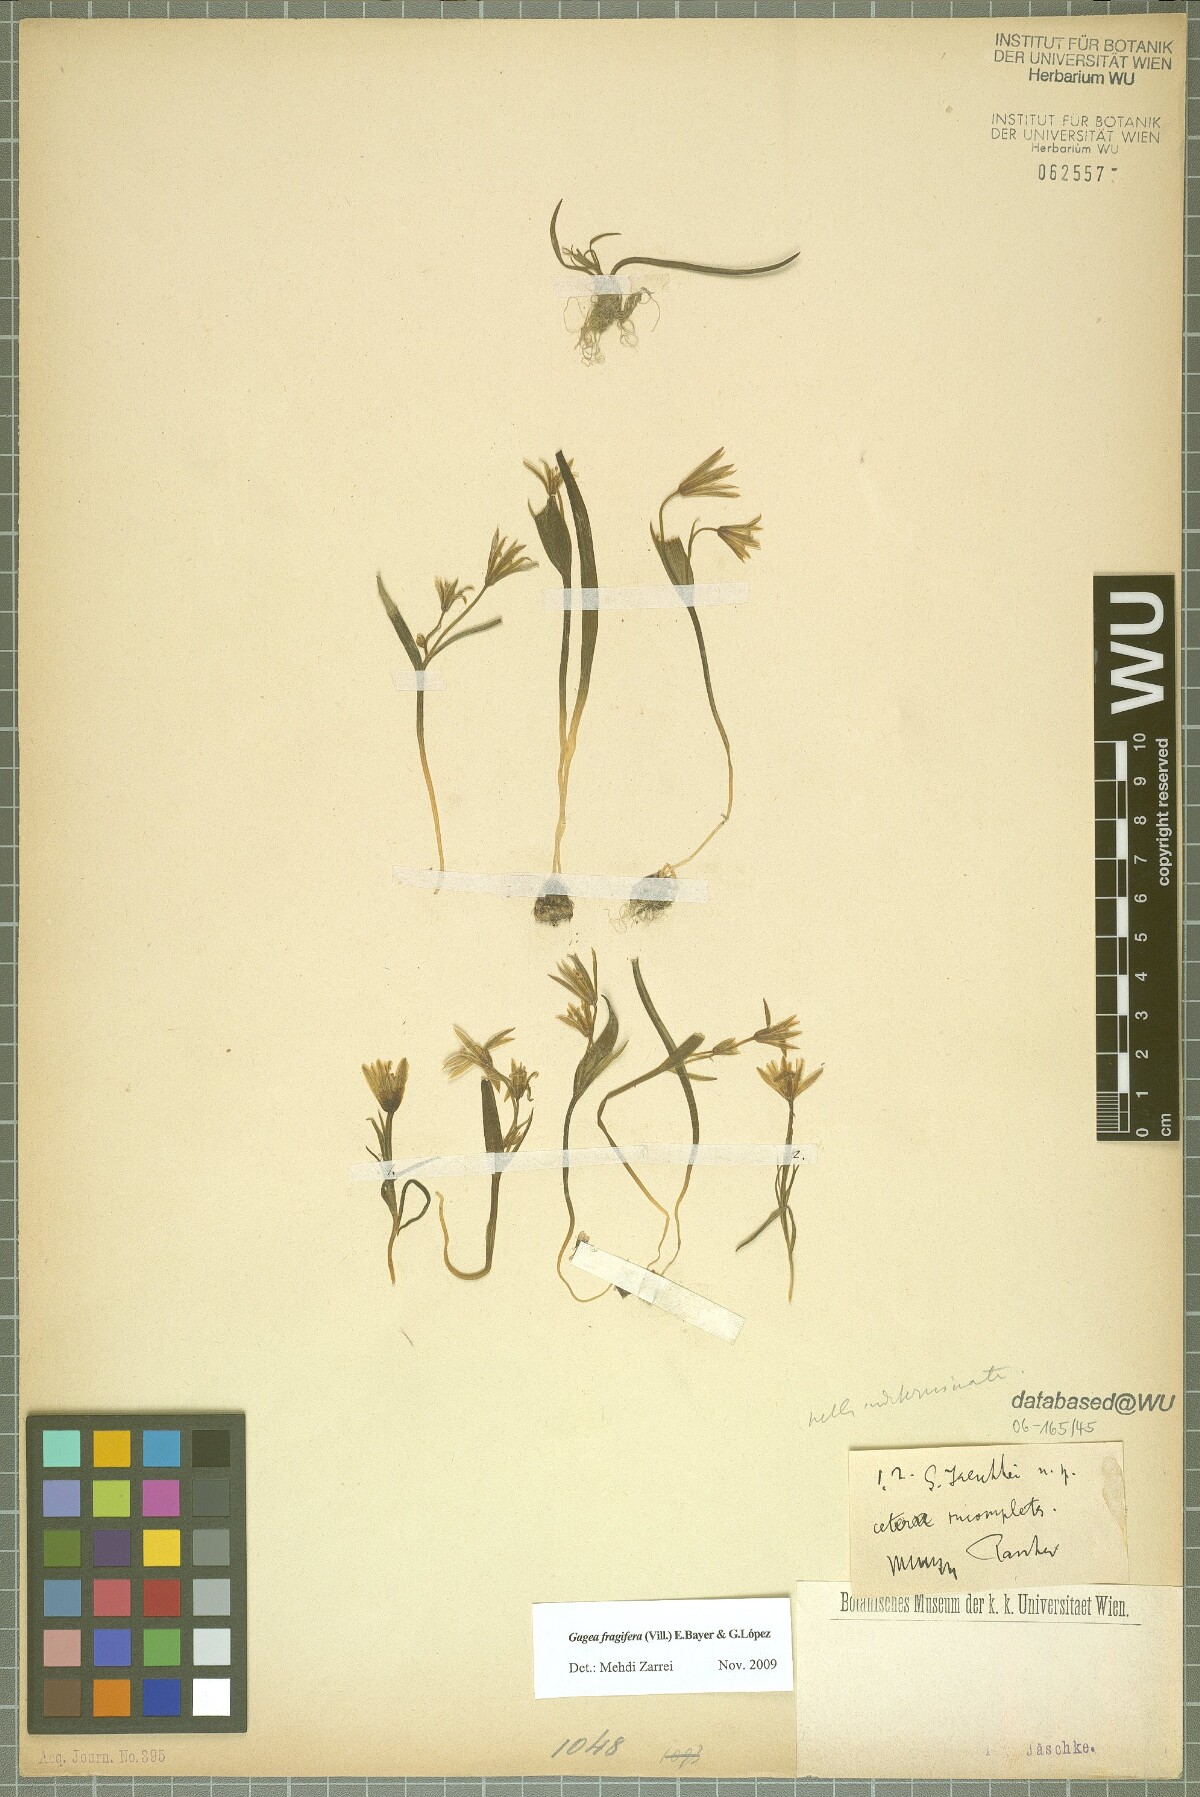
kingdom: Plantae
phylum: Tracheophyta
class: Liliopsida
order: Liliales
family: Liliaceae
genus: Gagea
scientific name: Gagea fragifera
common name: Lily
